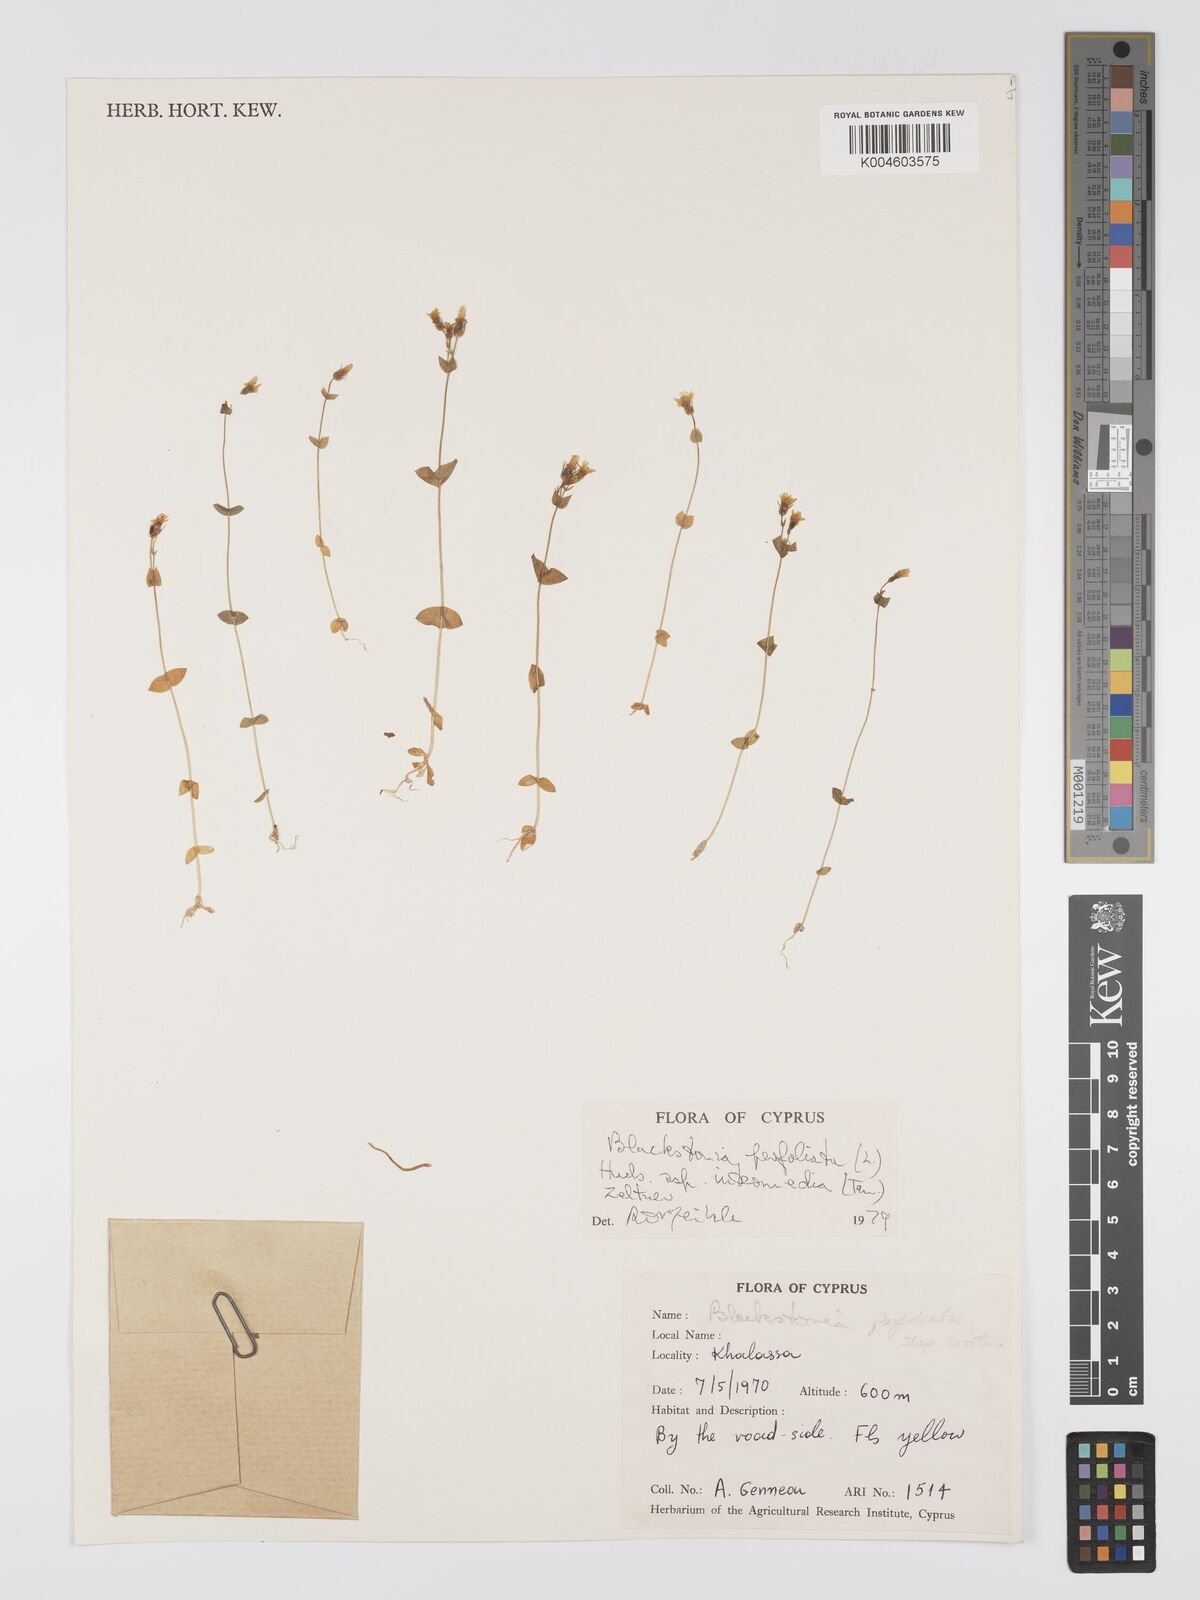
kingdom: Plantae
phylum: Tracheophyta
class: Magnoliopsida
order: Gentianales
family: Gentianaceae
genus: Blackstonia
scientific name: Blackstonia perfoliata
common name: Yellow-wort
